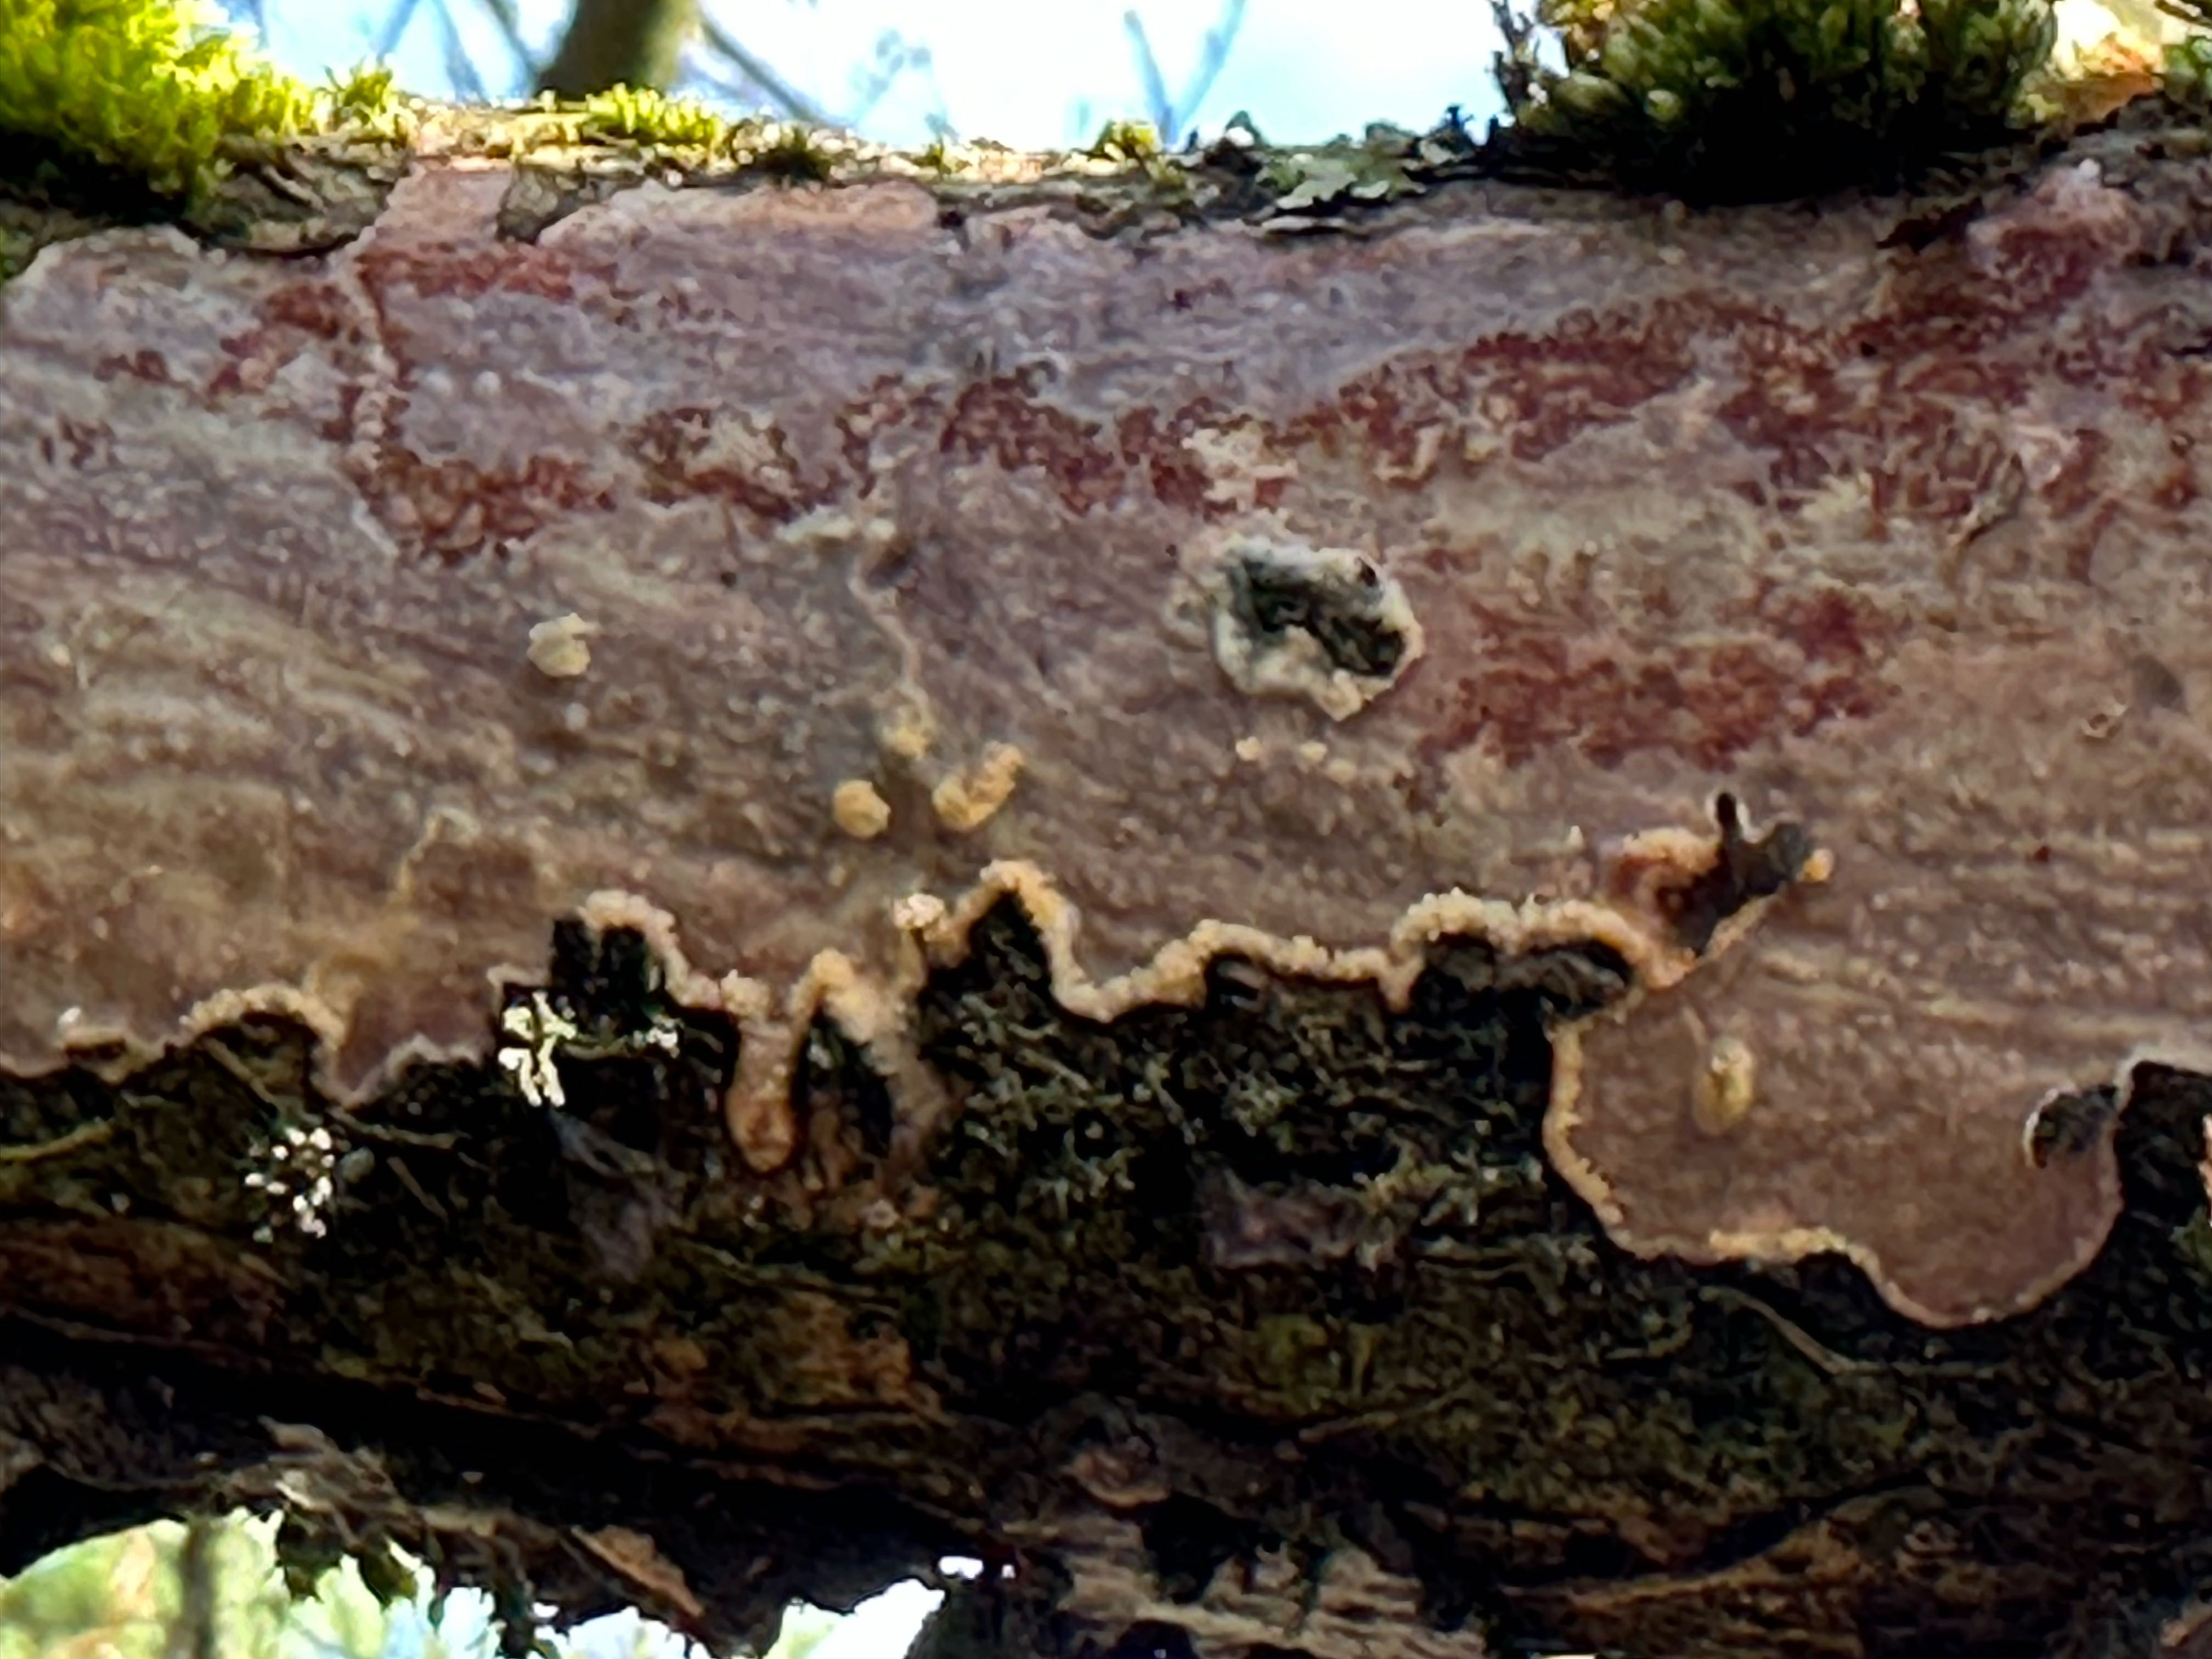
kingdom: Fungi
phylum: Basidiomycota
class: Agaricomycetes
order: Corticiales
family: Vuilleminiaceae
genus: Vuilleminia
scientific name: Vuilleminia comedens
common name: almindelig barksprænger
